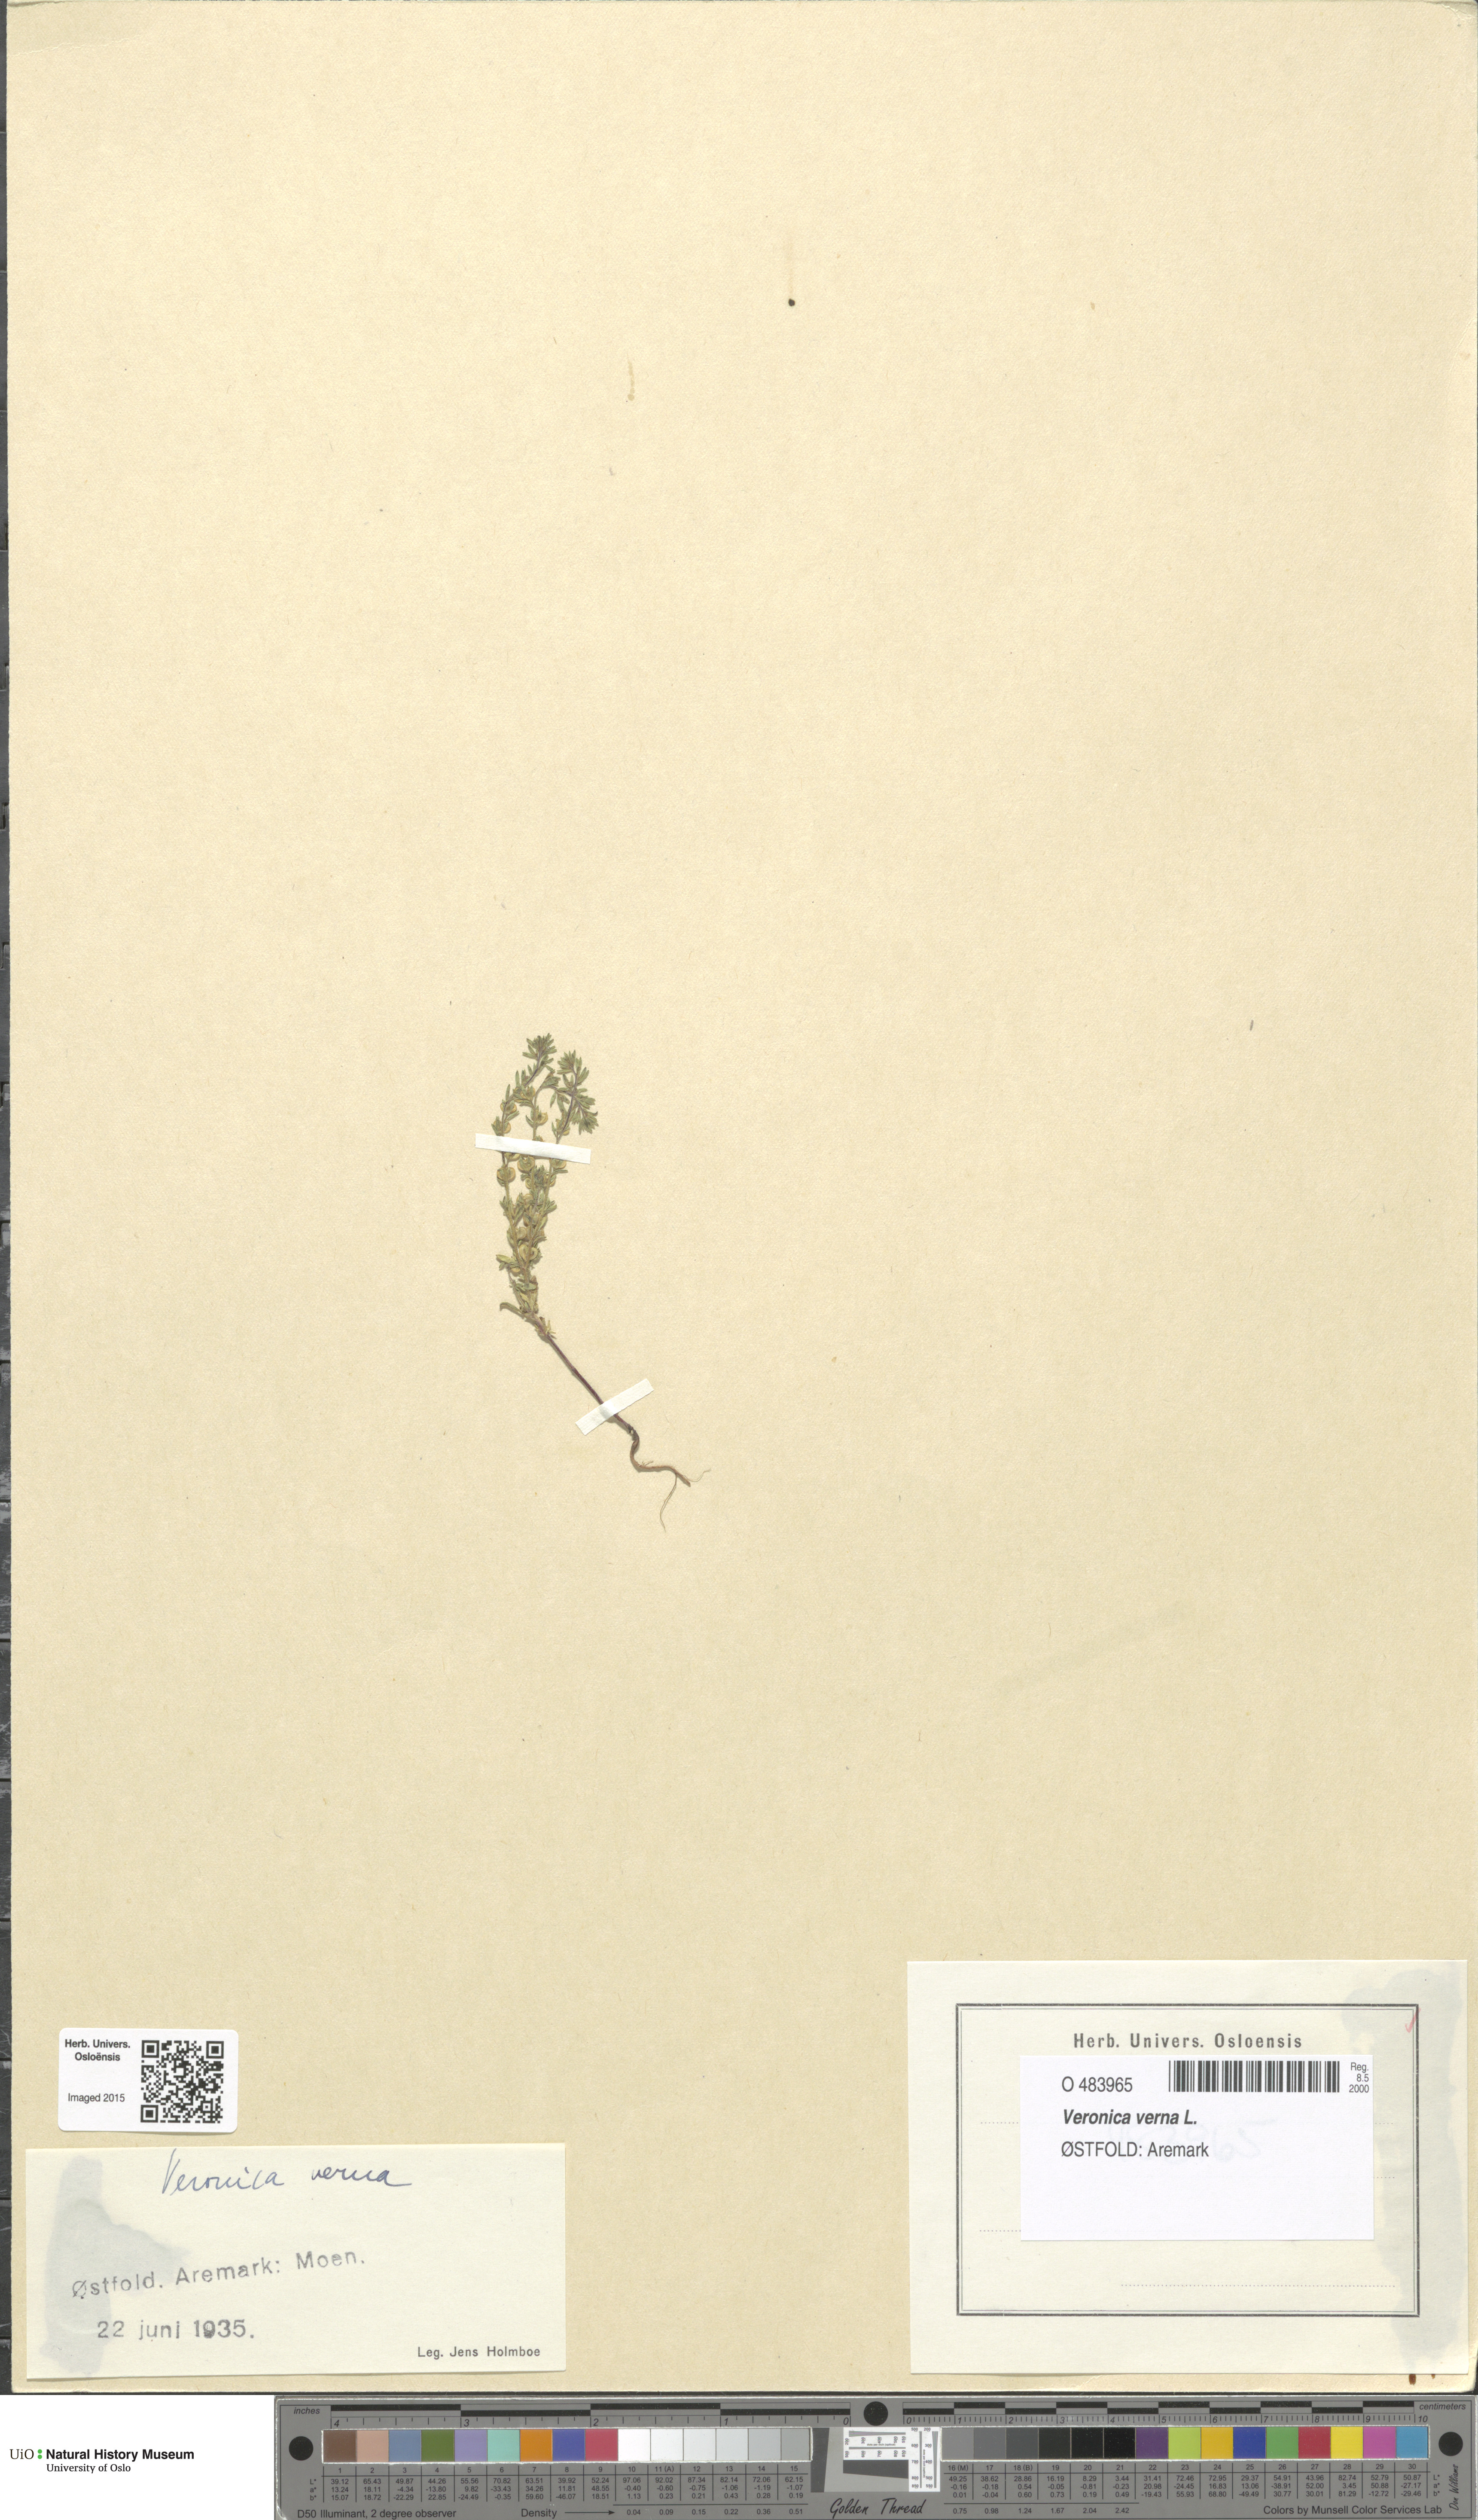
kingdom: Plantae
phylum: Tracheophyta
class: Magnoliopsida
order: Lamiales
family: Plantaginaceae
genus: Veronica
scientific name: Veronica verna
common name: Spring speedwell
